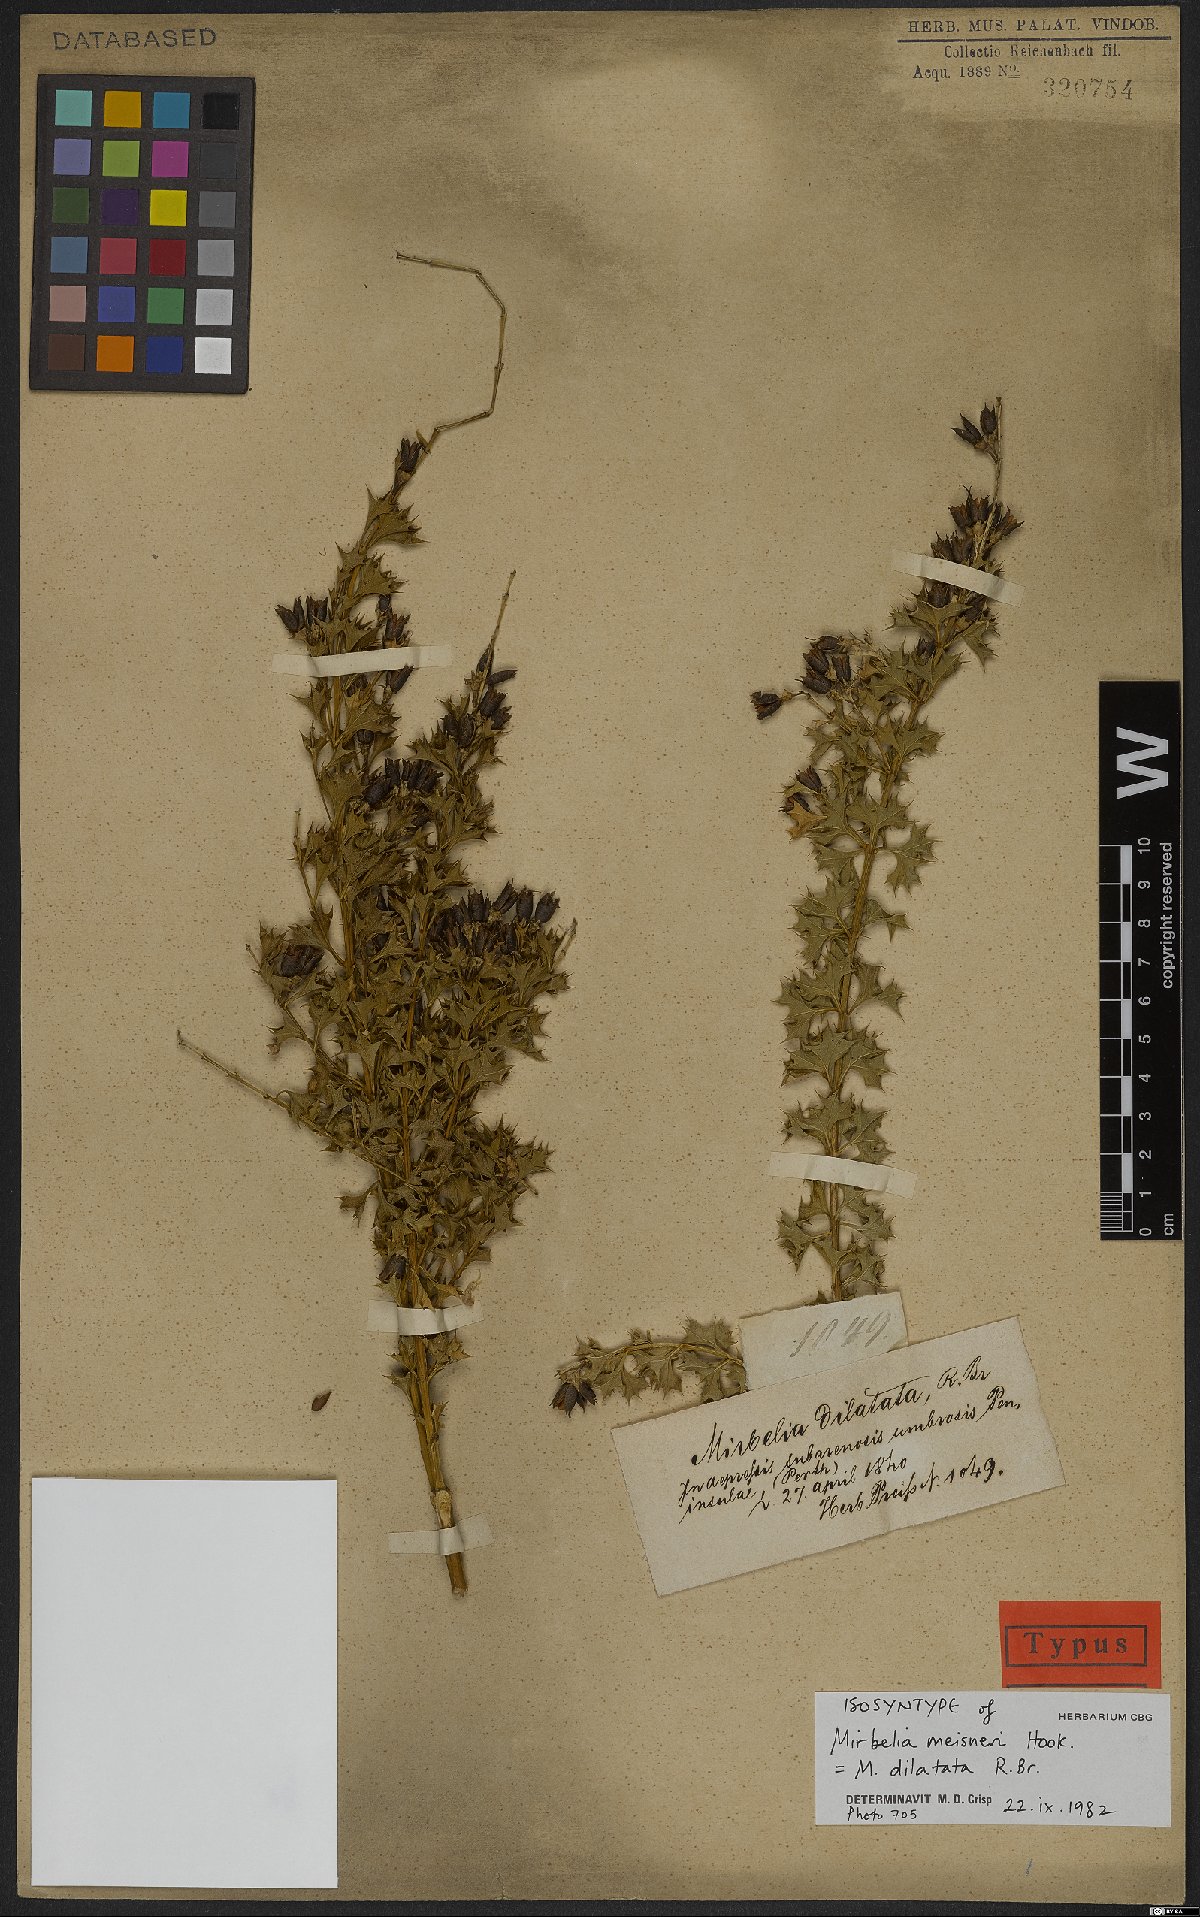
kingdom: Plantae
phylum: Tracheophyta
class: Magnoliopsida
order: Fabales
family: Fabaceae
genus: Mirbelia
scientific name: Mirbelia dilatata
